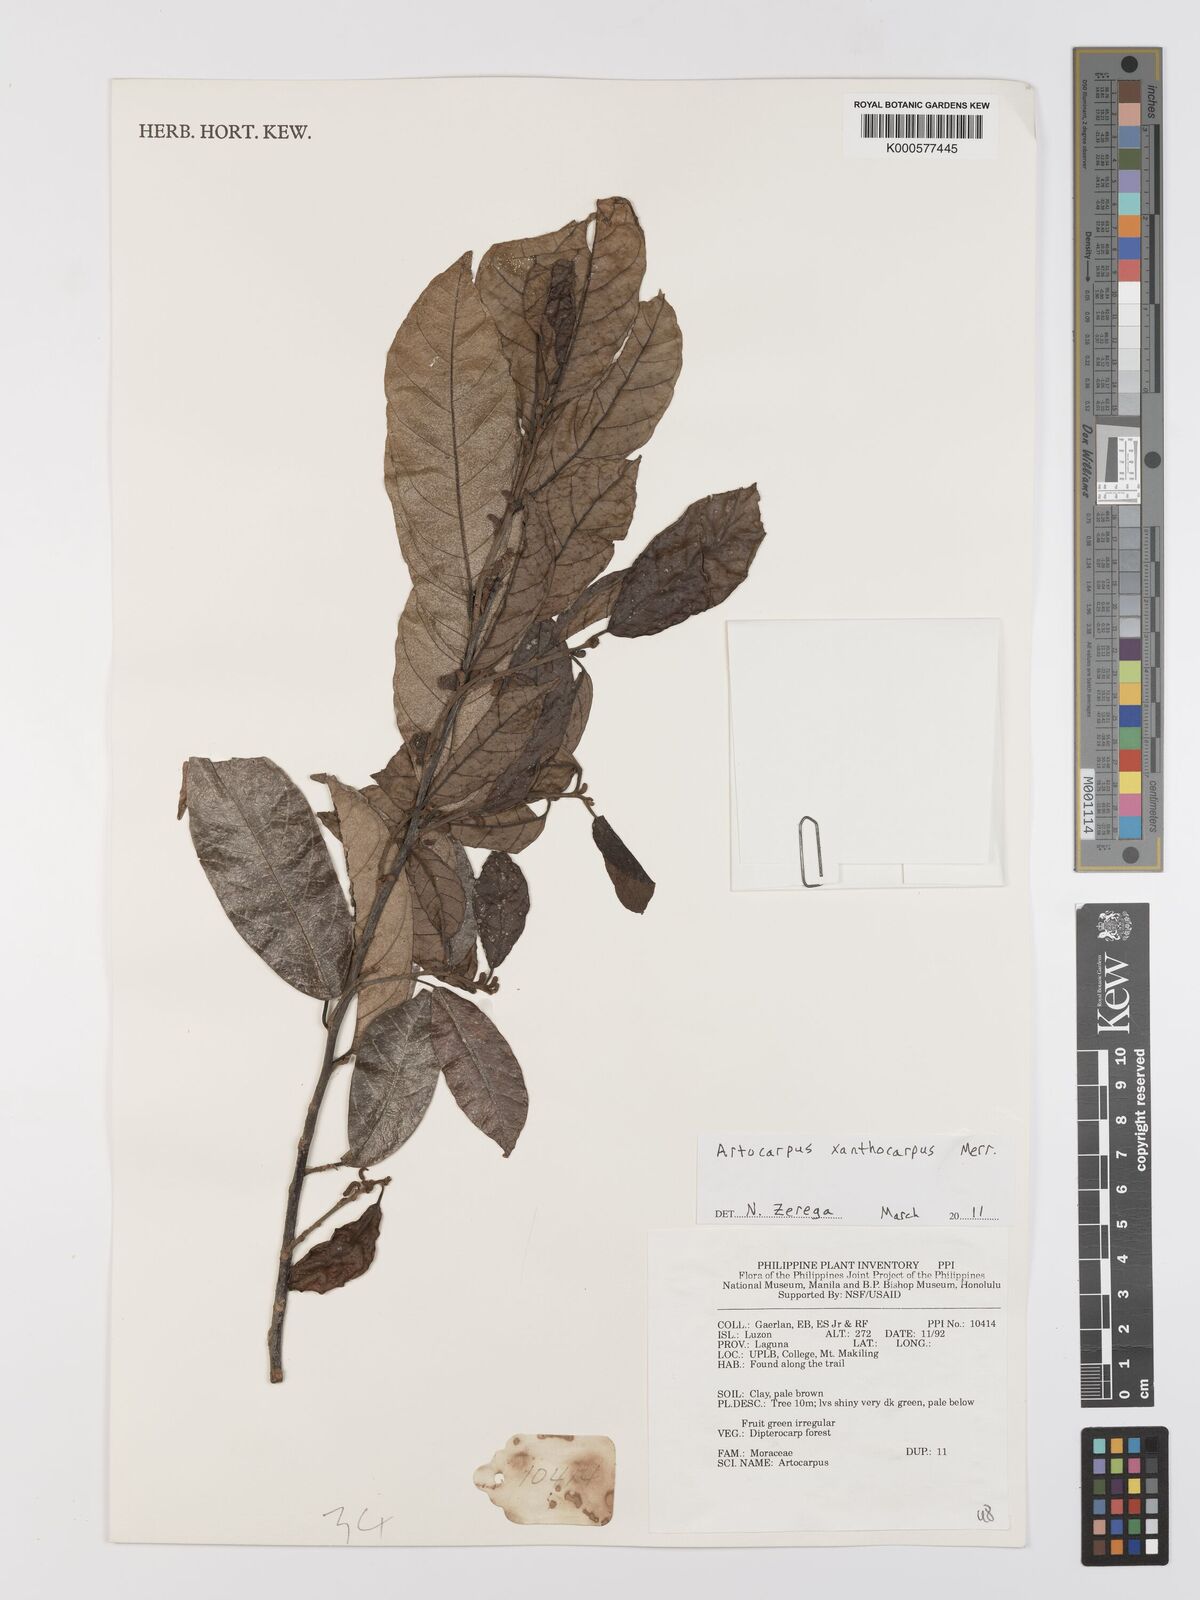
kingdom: Plantae
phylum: Tracheophyta
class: Magnoliopsida
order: Rosales
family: Moraceae
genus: Artocarpus
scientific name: Artocarpus lamellosus
